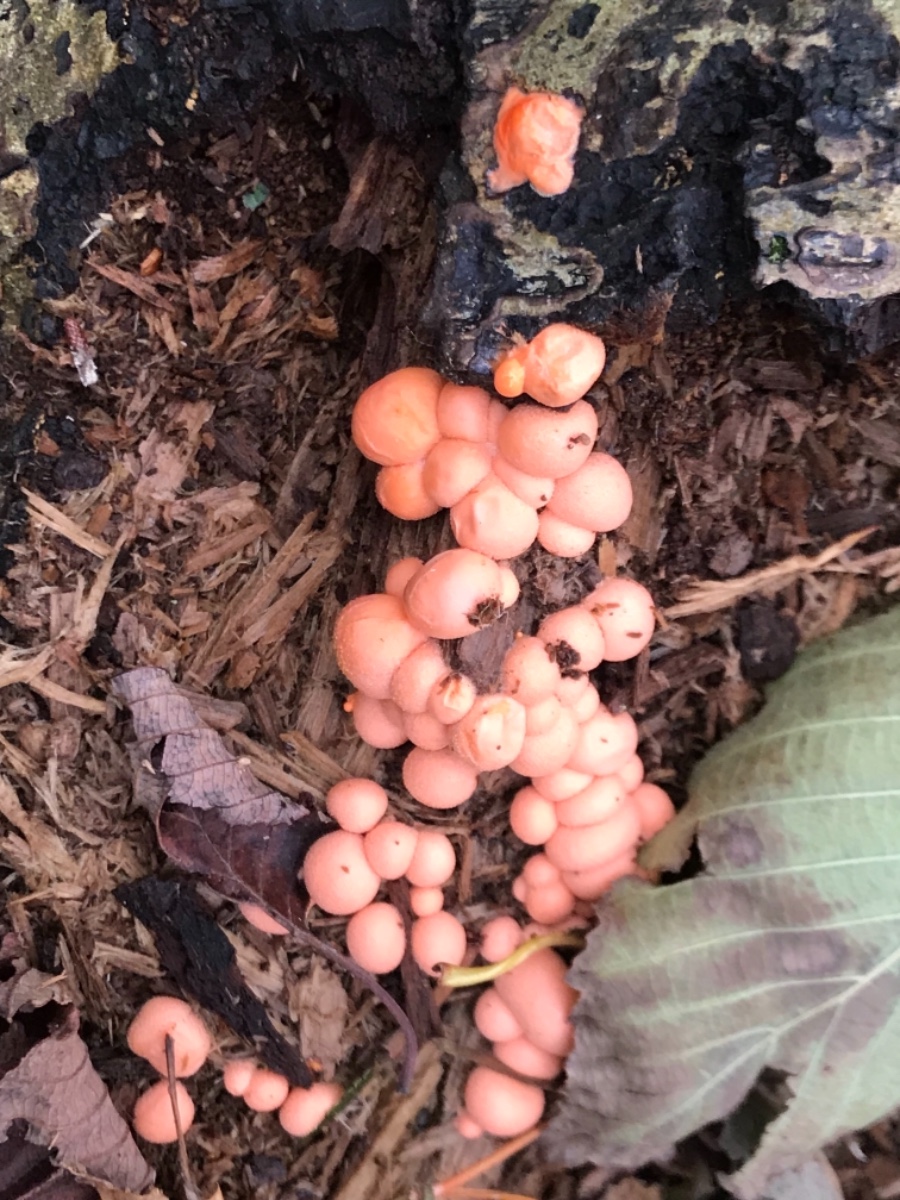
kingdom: Protozoa
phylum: Mycetozoa
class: Myxomycetes
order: Cribrariales
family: Tubiferaceae
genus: Lycogala
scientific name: Lycogala epidendrum
